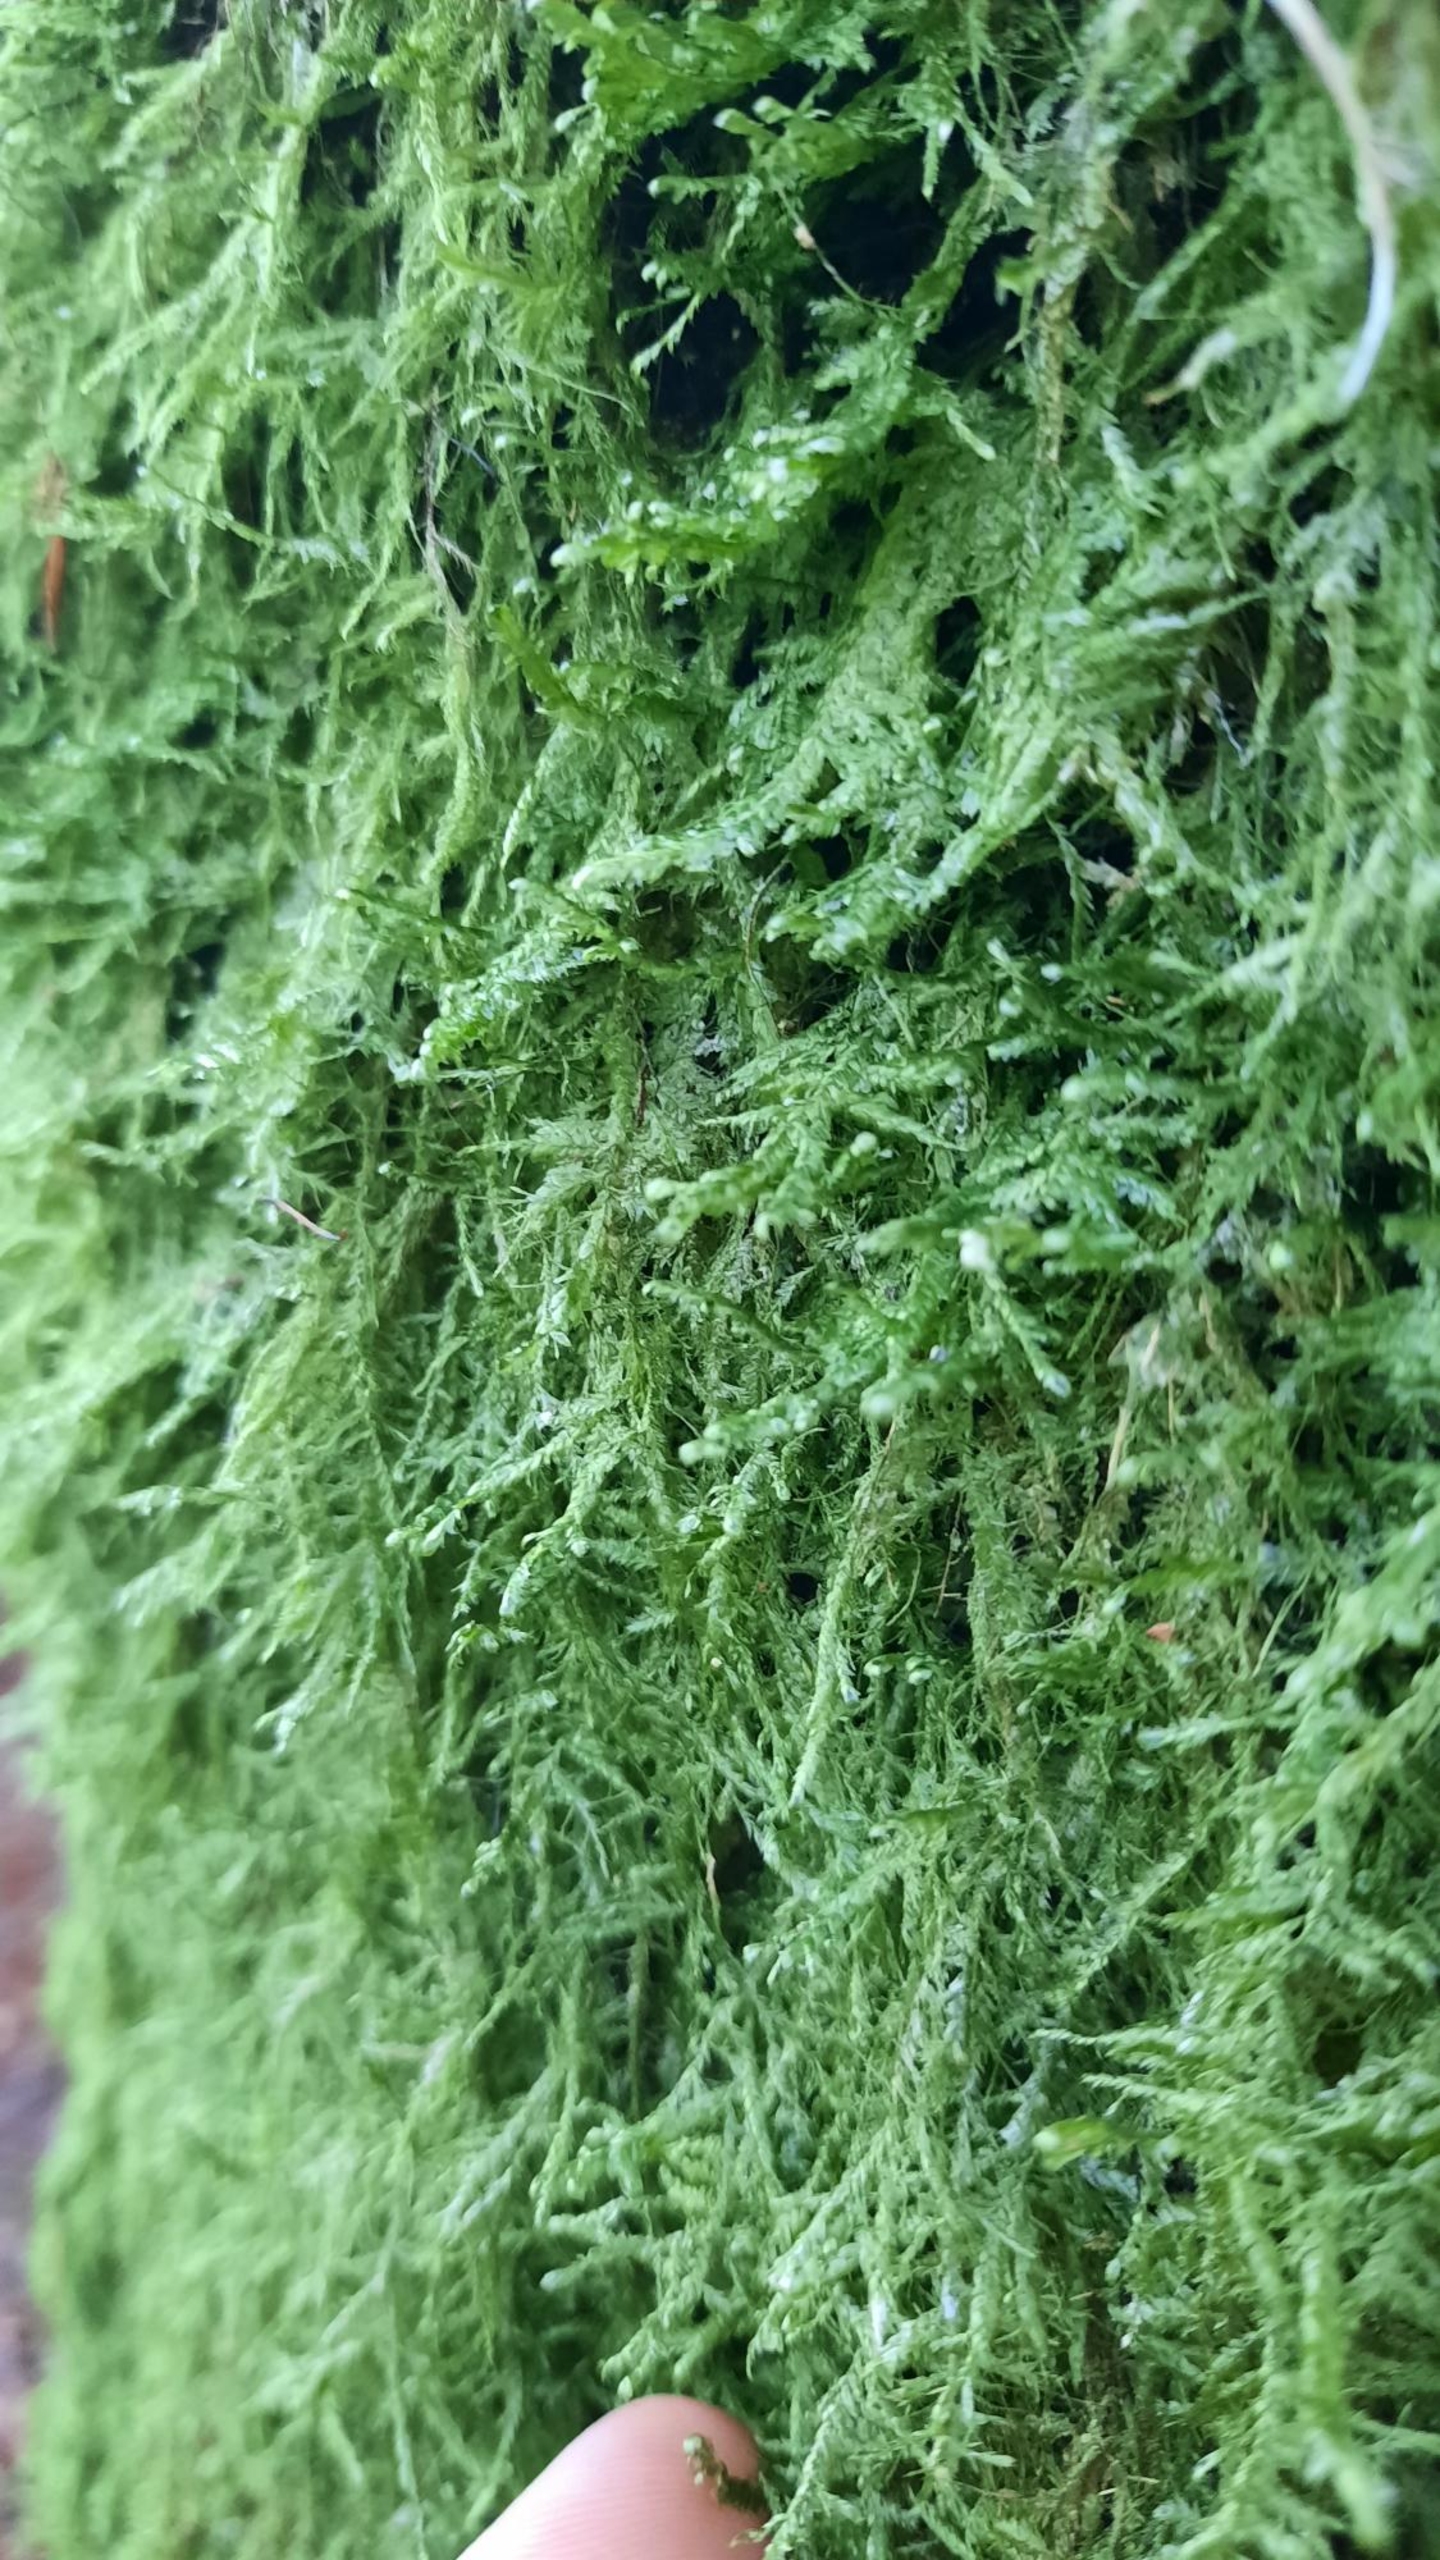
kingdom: Plantae
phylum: Bryophyta
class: Bryopsida
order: Hypnales
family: Neckeraceae
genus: Alleniella
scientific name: Alleniella complanata
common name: Almindelig fladmos
